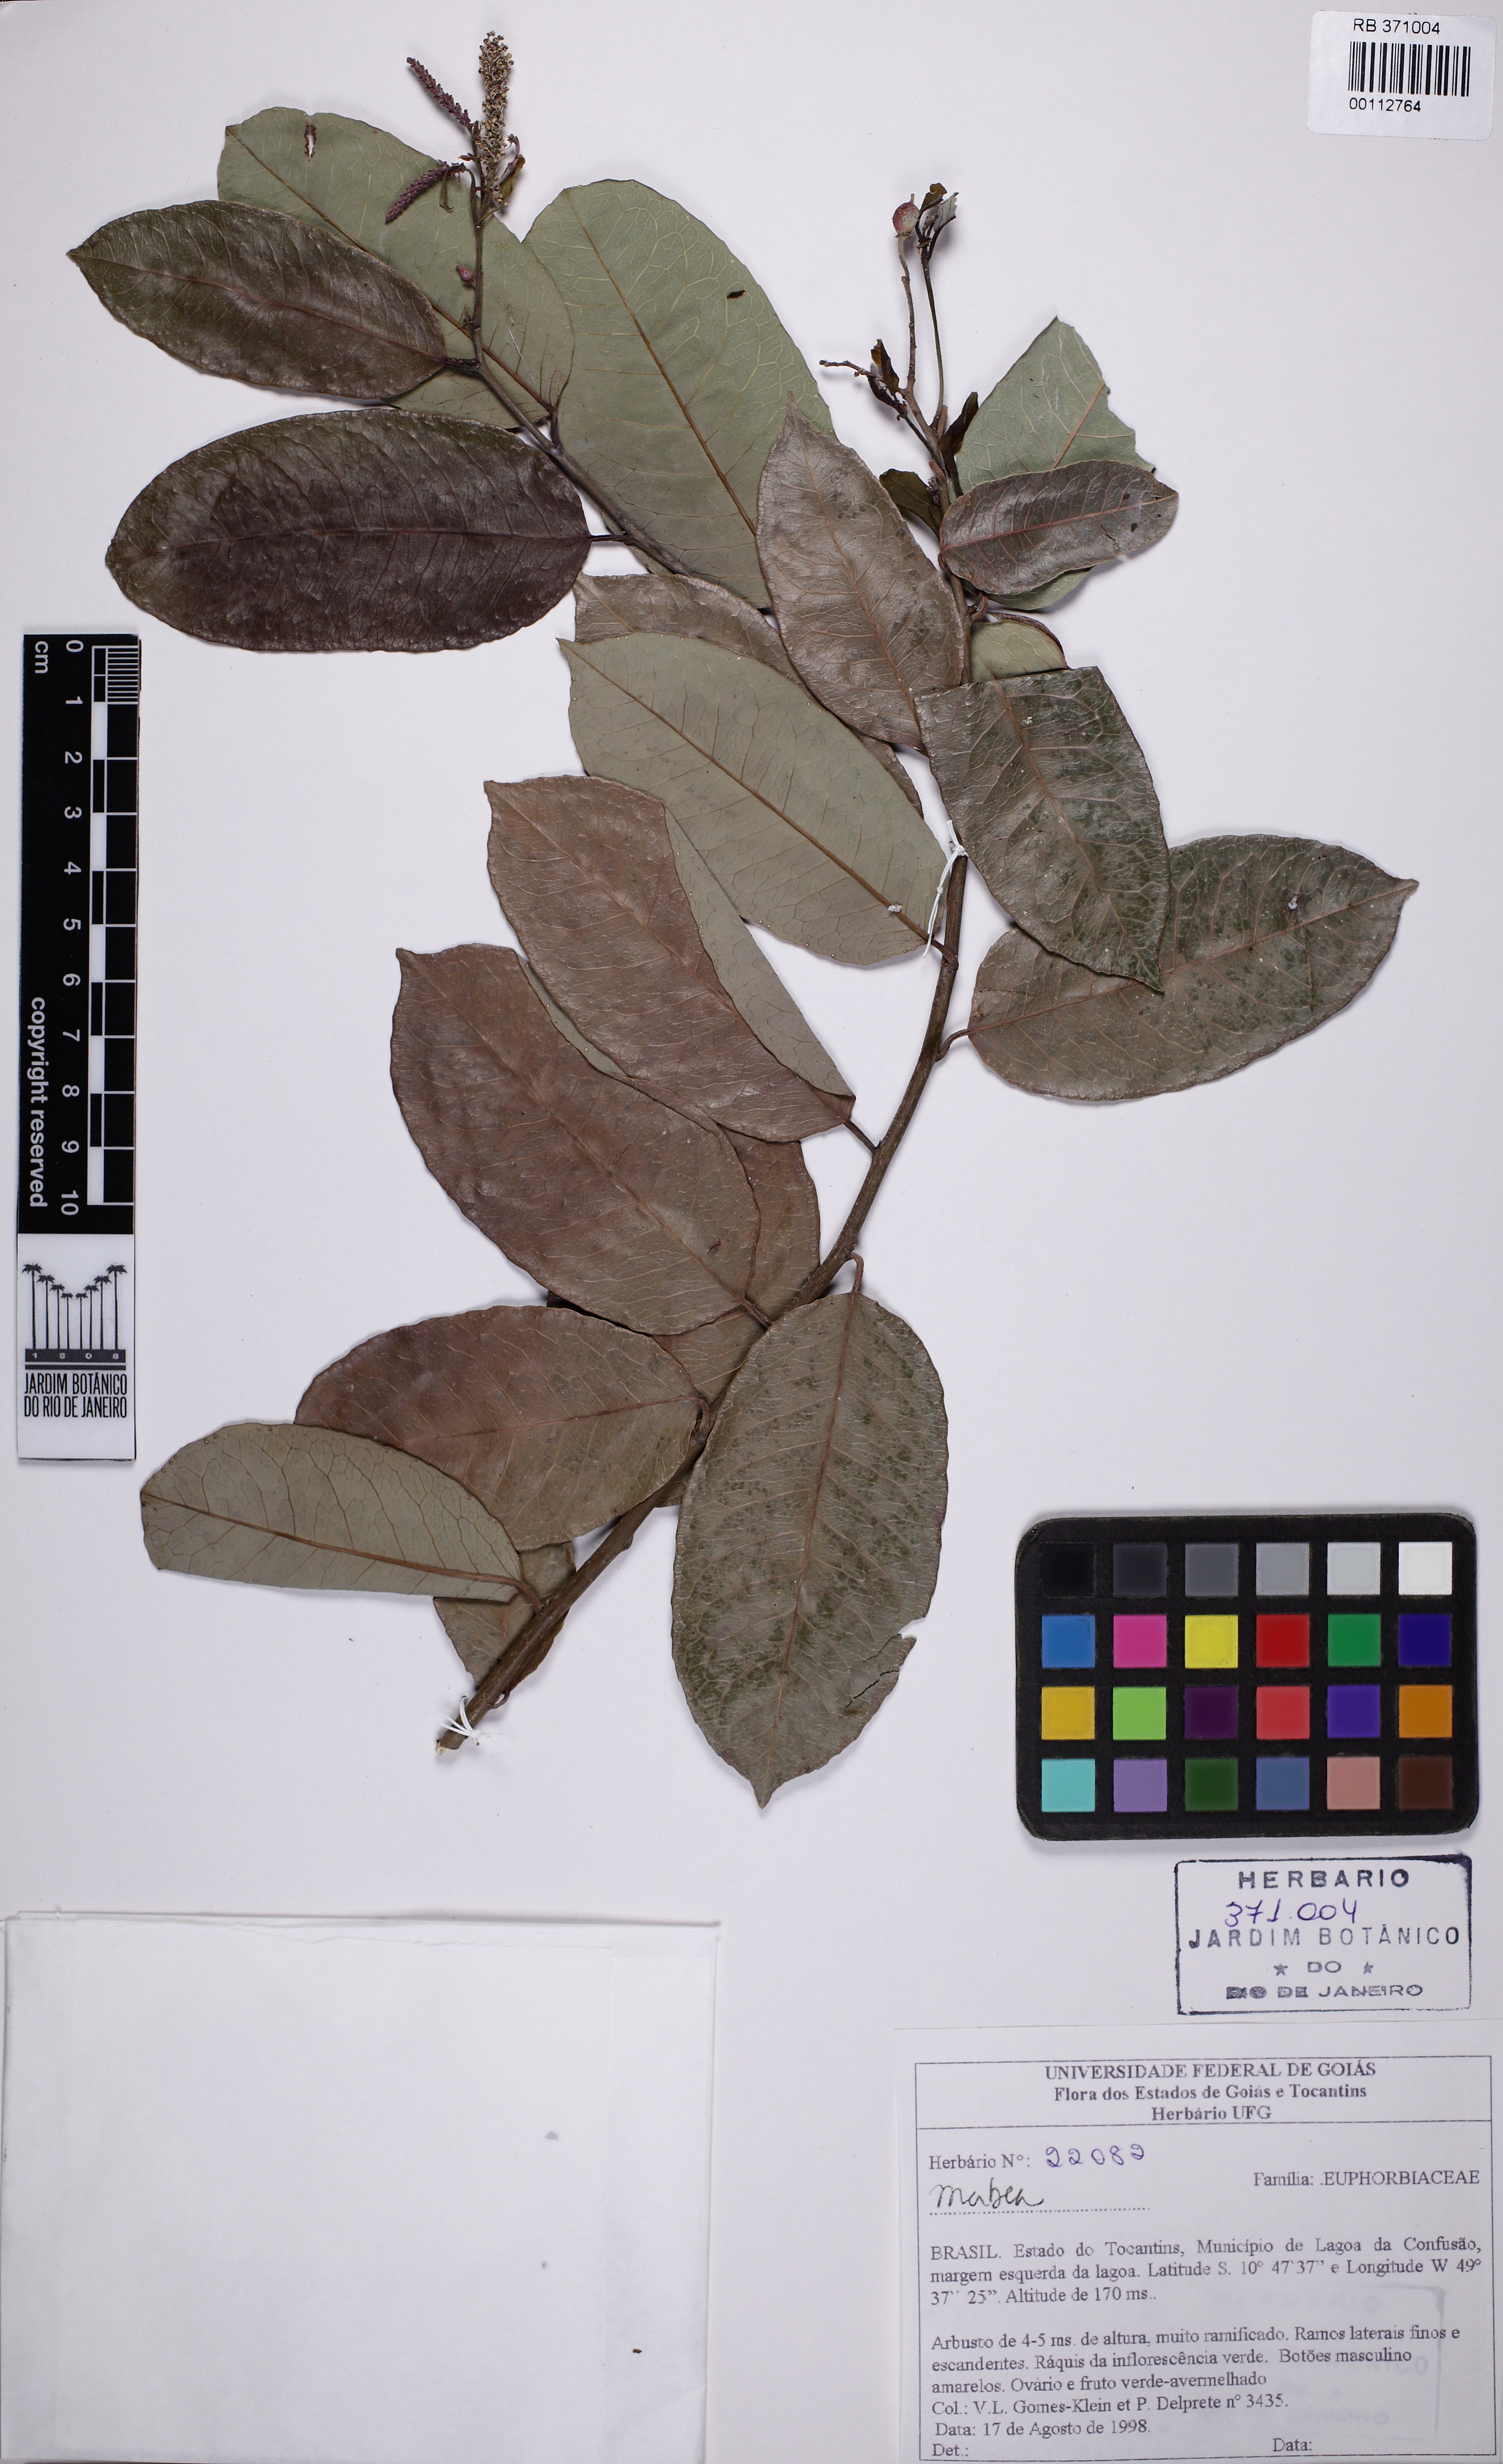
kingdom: Plantae
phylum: Tracheophyta
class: Magnoliopsida
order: Malpighiales
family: Euphorbiaceae
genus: Mabea
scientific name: Mabea
